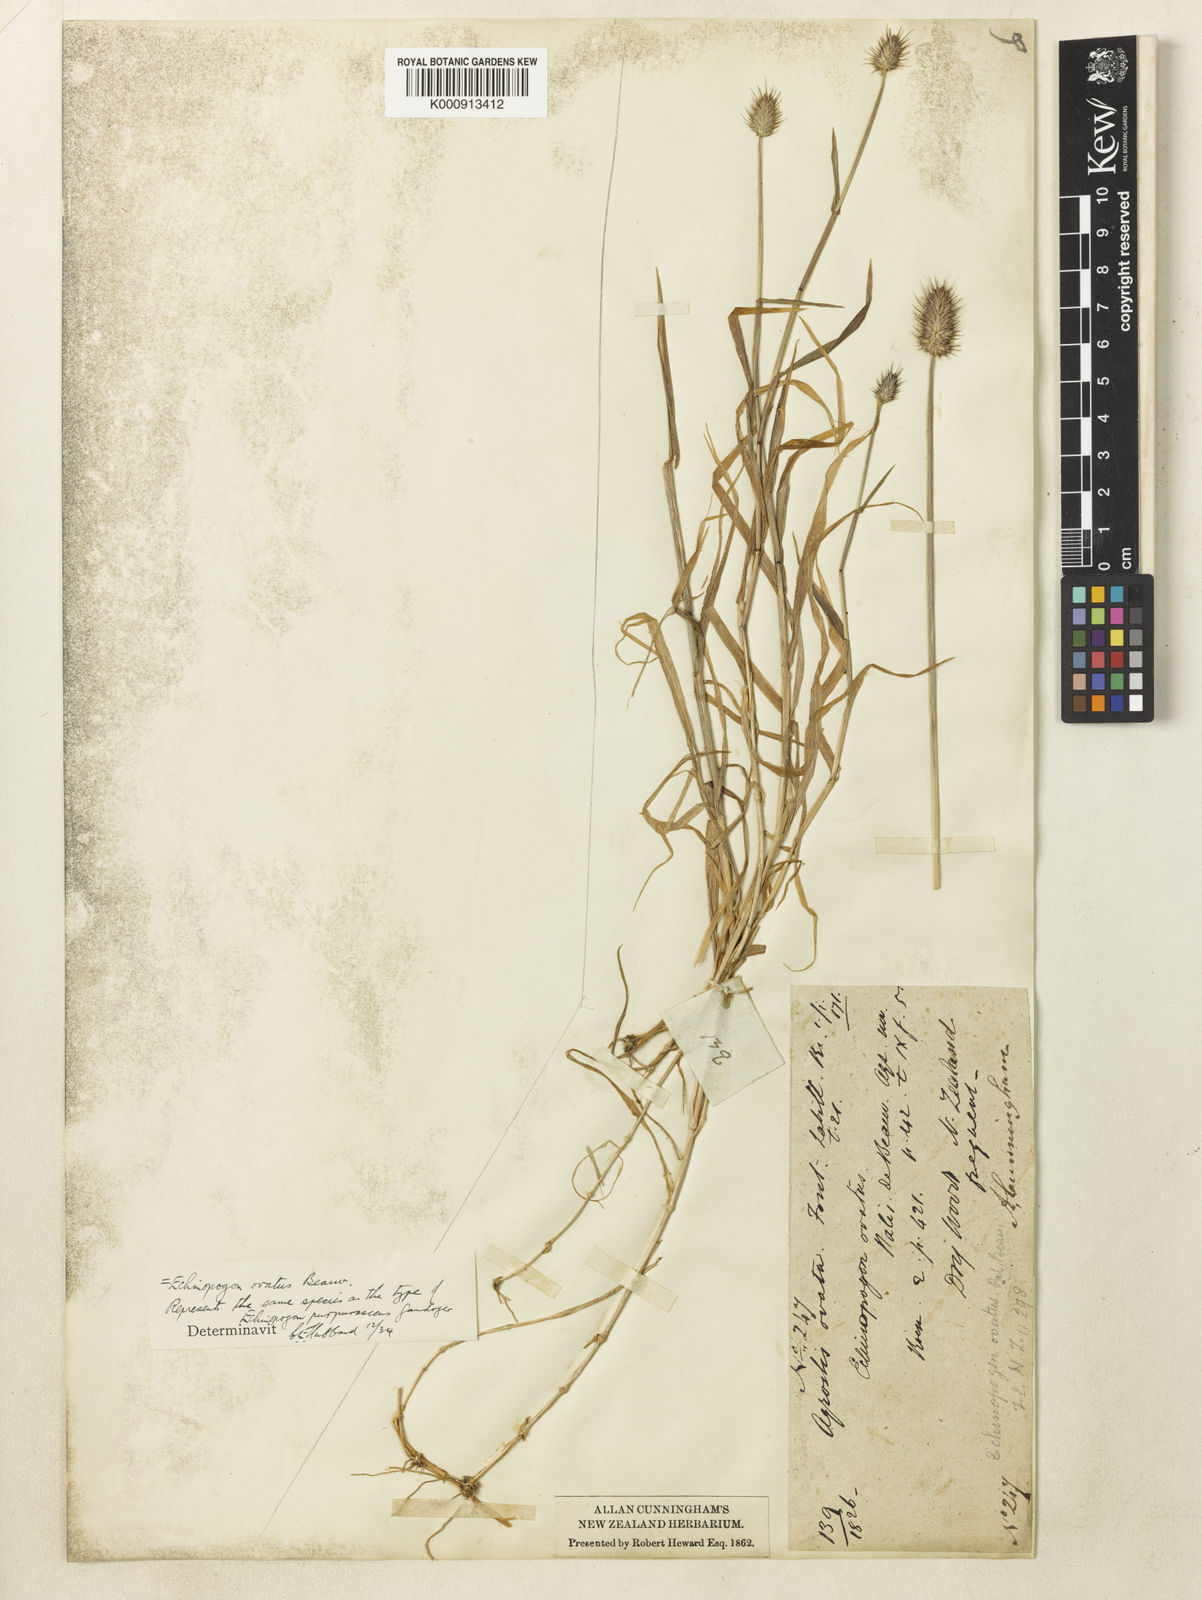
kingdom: Plantae
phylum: Tracheophyta
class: Liliopsida
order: Poales
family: Poaceae
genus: Echinopogon
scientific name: Echinopogon ovatus
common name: Hedgehog-grass
